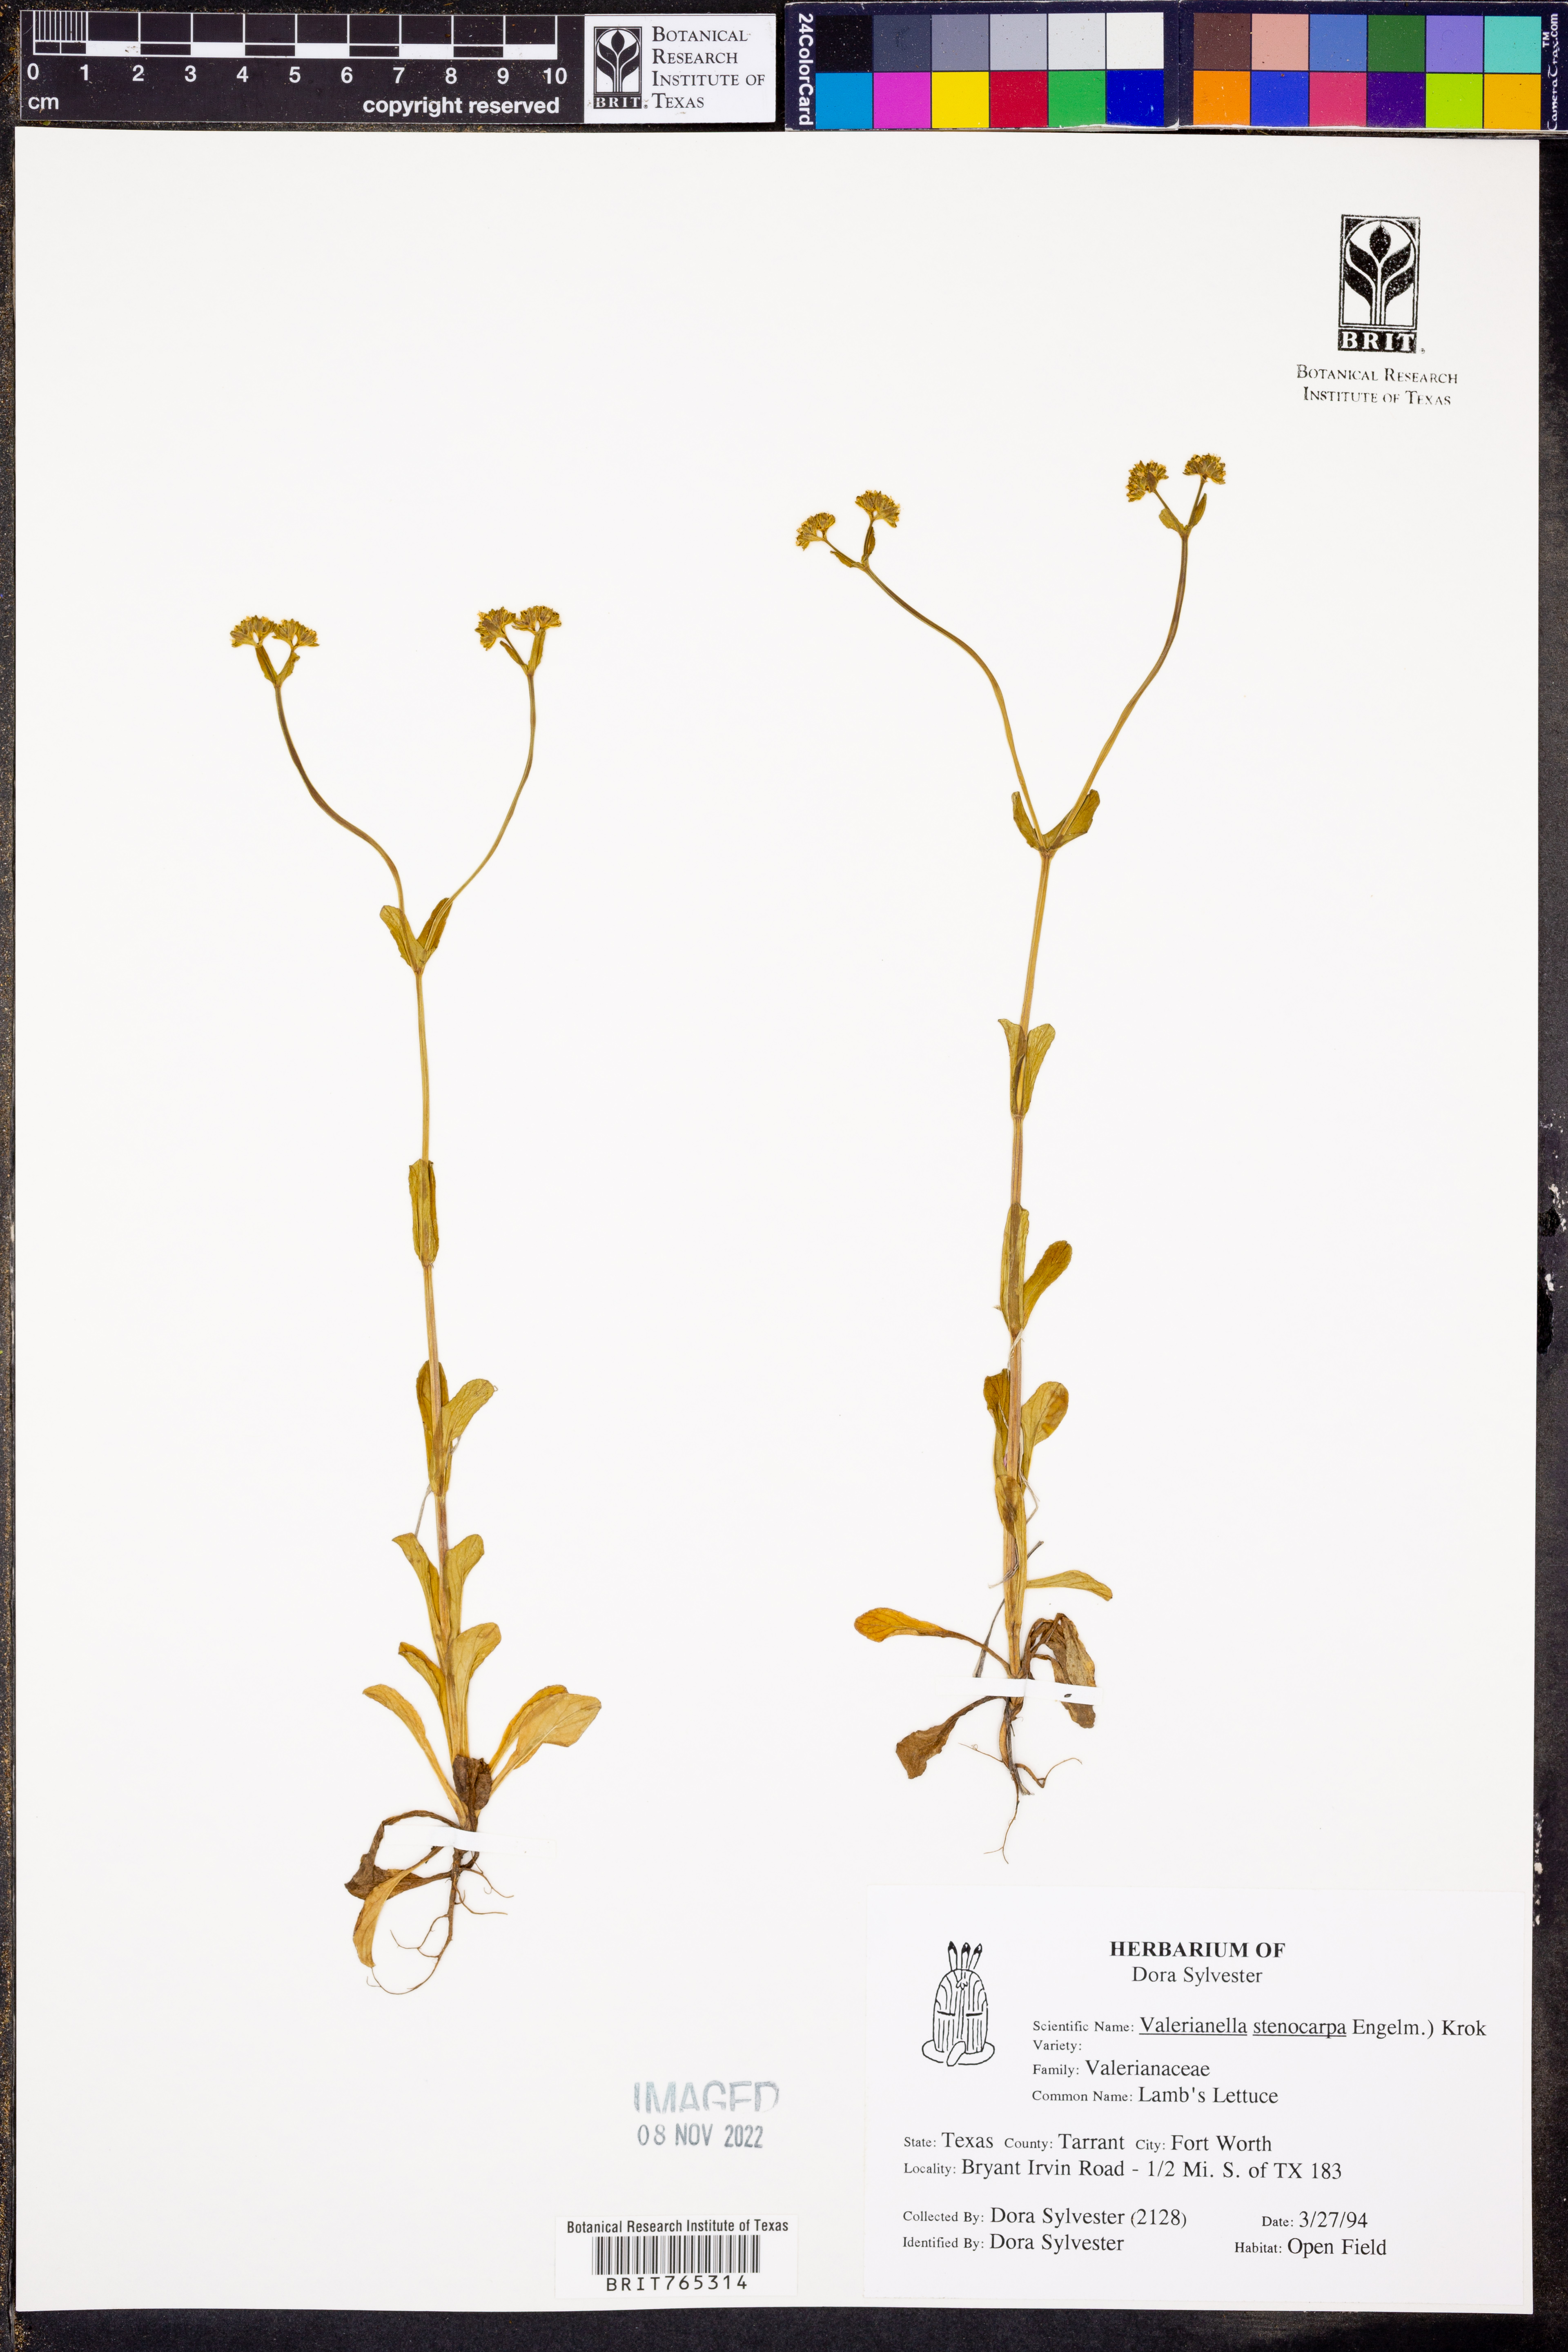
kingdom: Plantae
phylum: Tracheophyta
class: Magnoliopsida
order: Dipsacales
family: Caprifoliaceae
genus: Valerianella
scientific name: Valerianella stenocarpa
